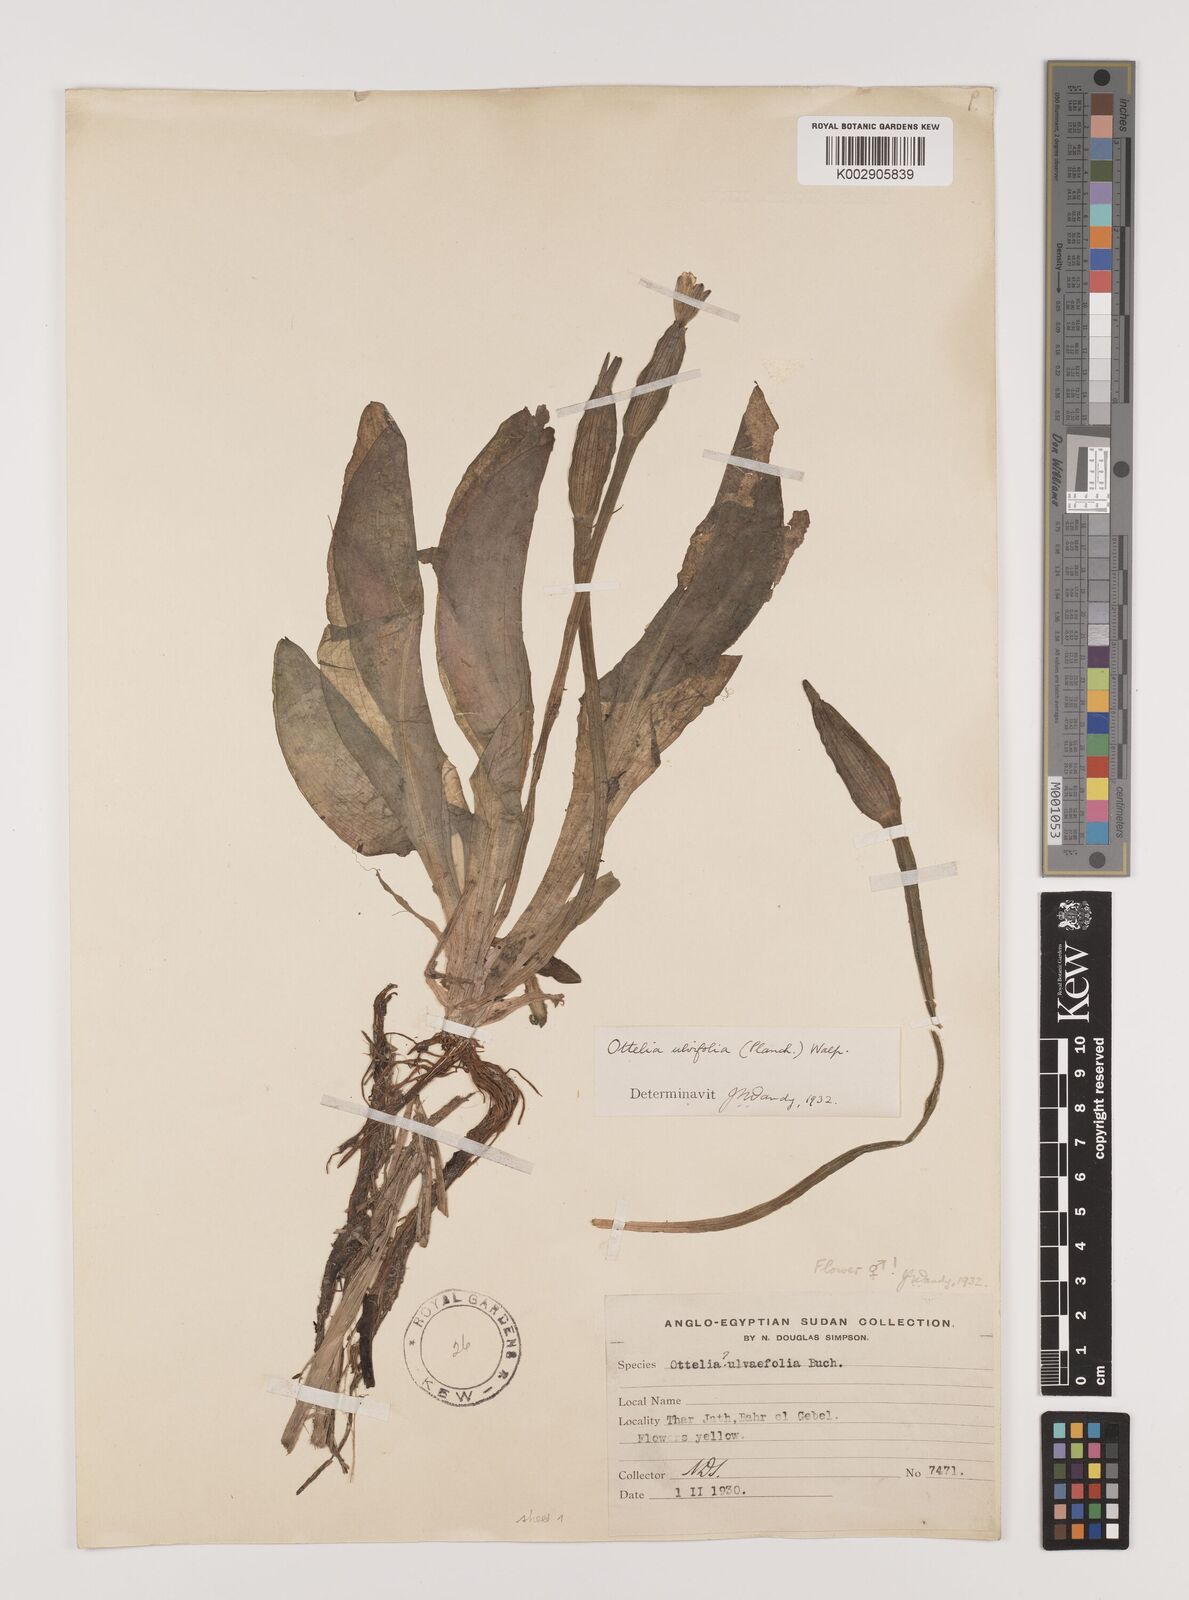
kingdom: Plantae
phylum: Tracheophyta
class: Liliopsida
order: Alismatales
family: Hydrocharitaceae
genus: Ottelia
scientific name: Ottelia ulvifolia
